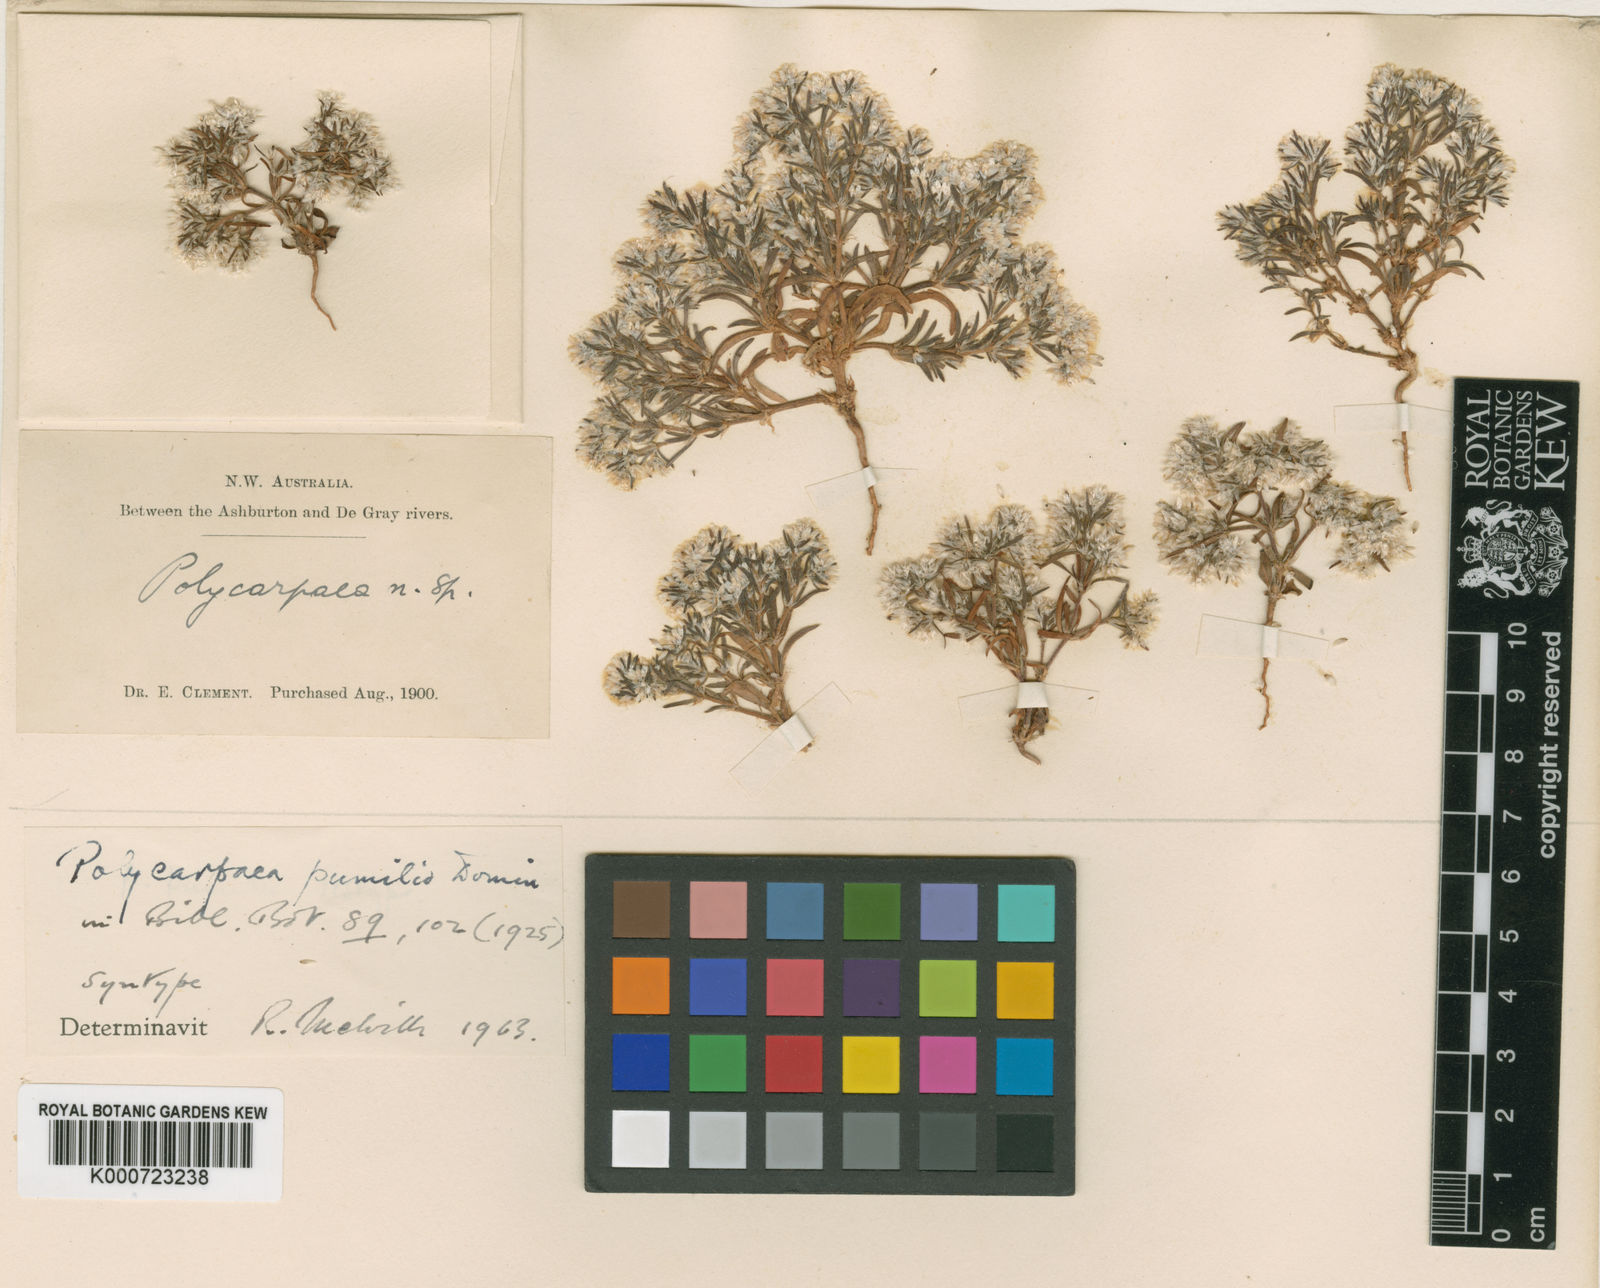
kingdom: Plantae
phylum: Tracheophyta
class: Magnoliopsida
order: Caryophyllales
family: Caryophyllaceae
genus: Polycarpaea
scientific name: Polycarpaea holtzei
